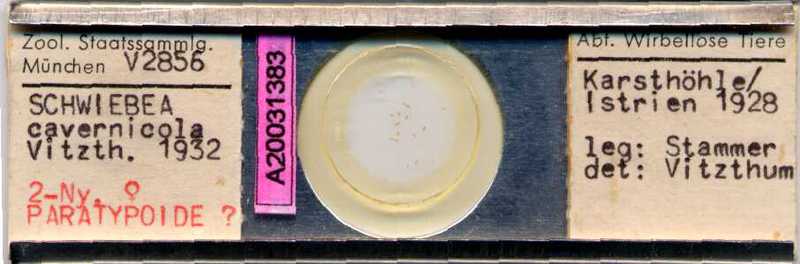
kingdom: Animalia
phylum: Arthropoda
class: Arachnida
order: Sarcoptiformes
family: Acaridae
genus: Schwiebea
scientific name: Schwiebea cavernicola
